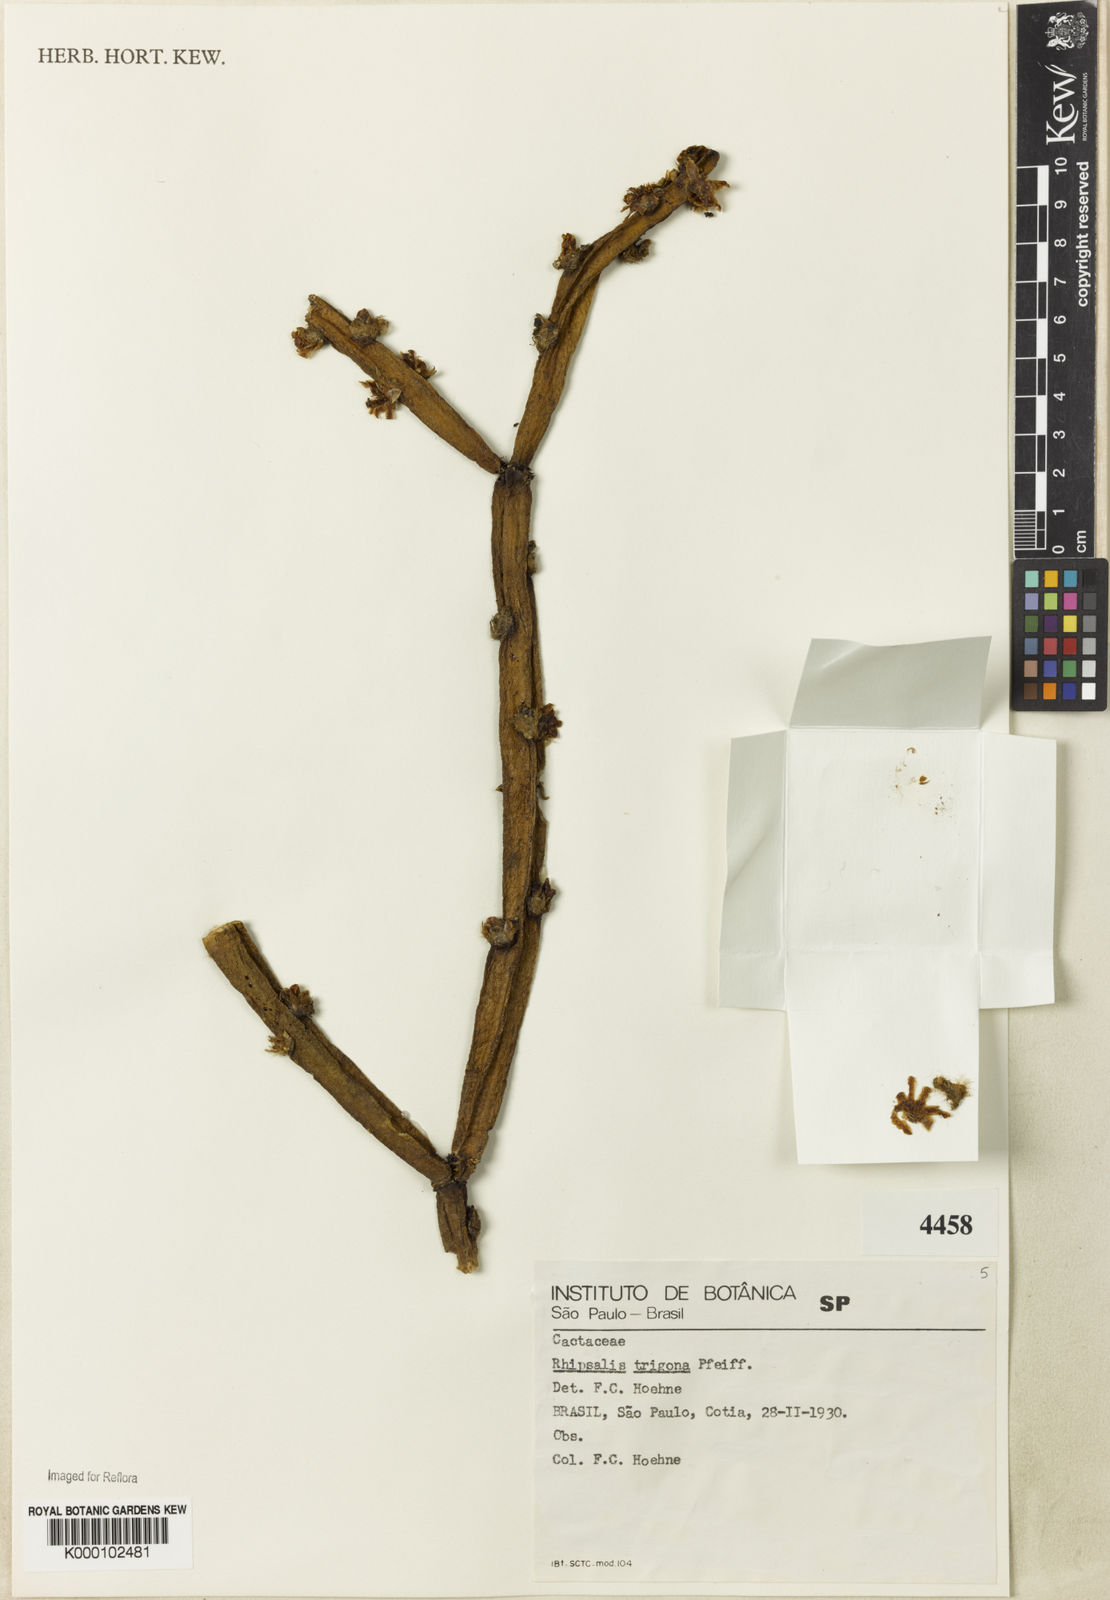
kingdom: Plantae
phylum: Tracheophyta
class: Magnoliopsida
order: Caryophyllales
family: Cactaceae
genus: Rhipsalis
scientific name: Rhipsalis trigona
